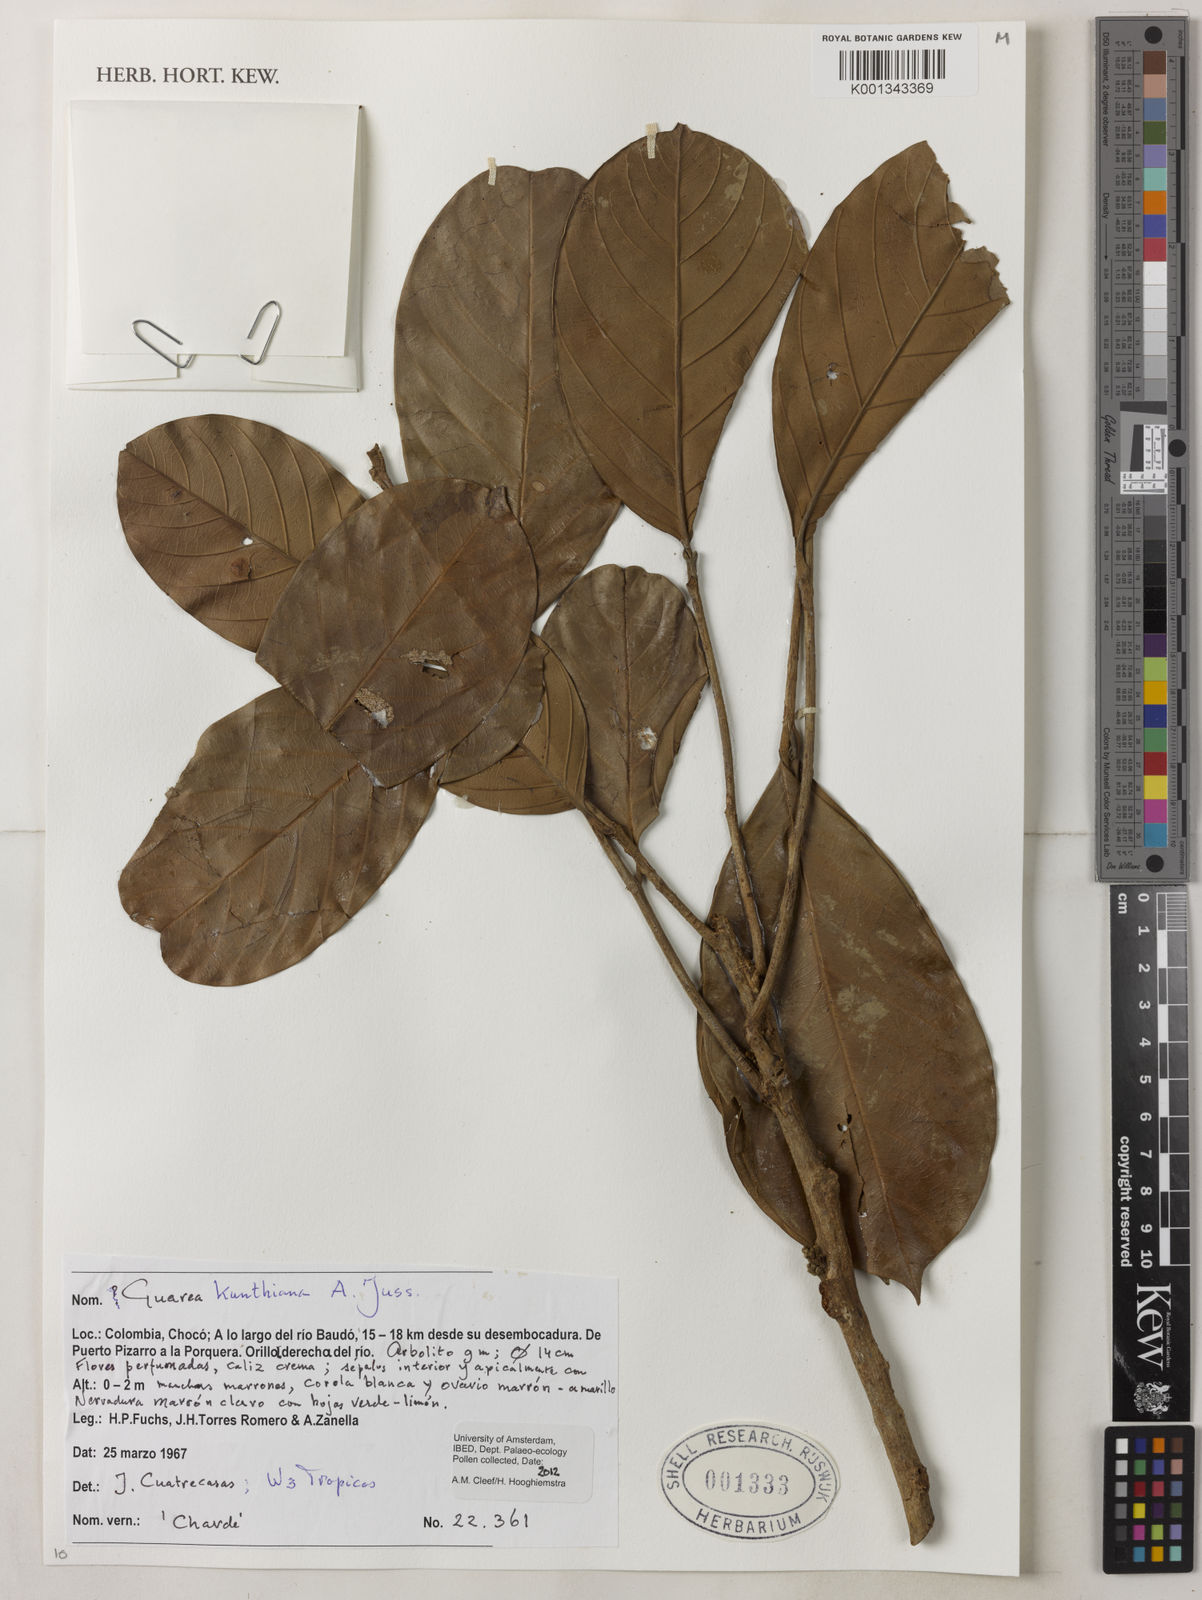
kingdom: Plantae
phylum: Tracheophyta
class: Magnoliopsida
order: Sapindales
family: Meliaceae
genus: Guarea
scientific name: Guarea kunthiana
